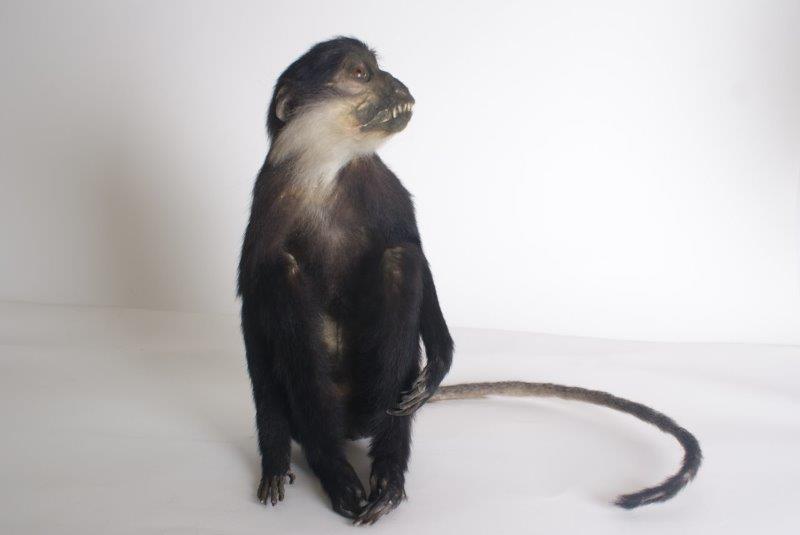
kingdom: Animalia
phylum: Chordata
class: Mammalia
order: Primates
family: Cercopithecidae
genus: Allochrocebus
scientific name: Allochrocebus lhoesti
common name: L’Hoest’s Monkey
